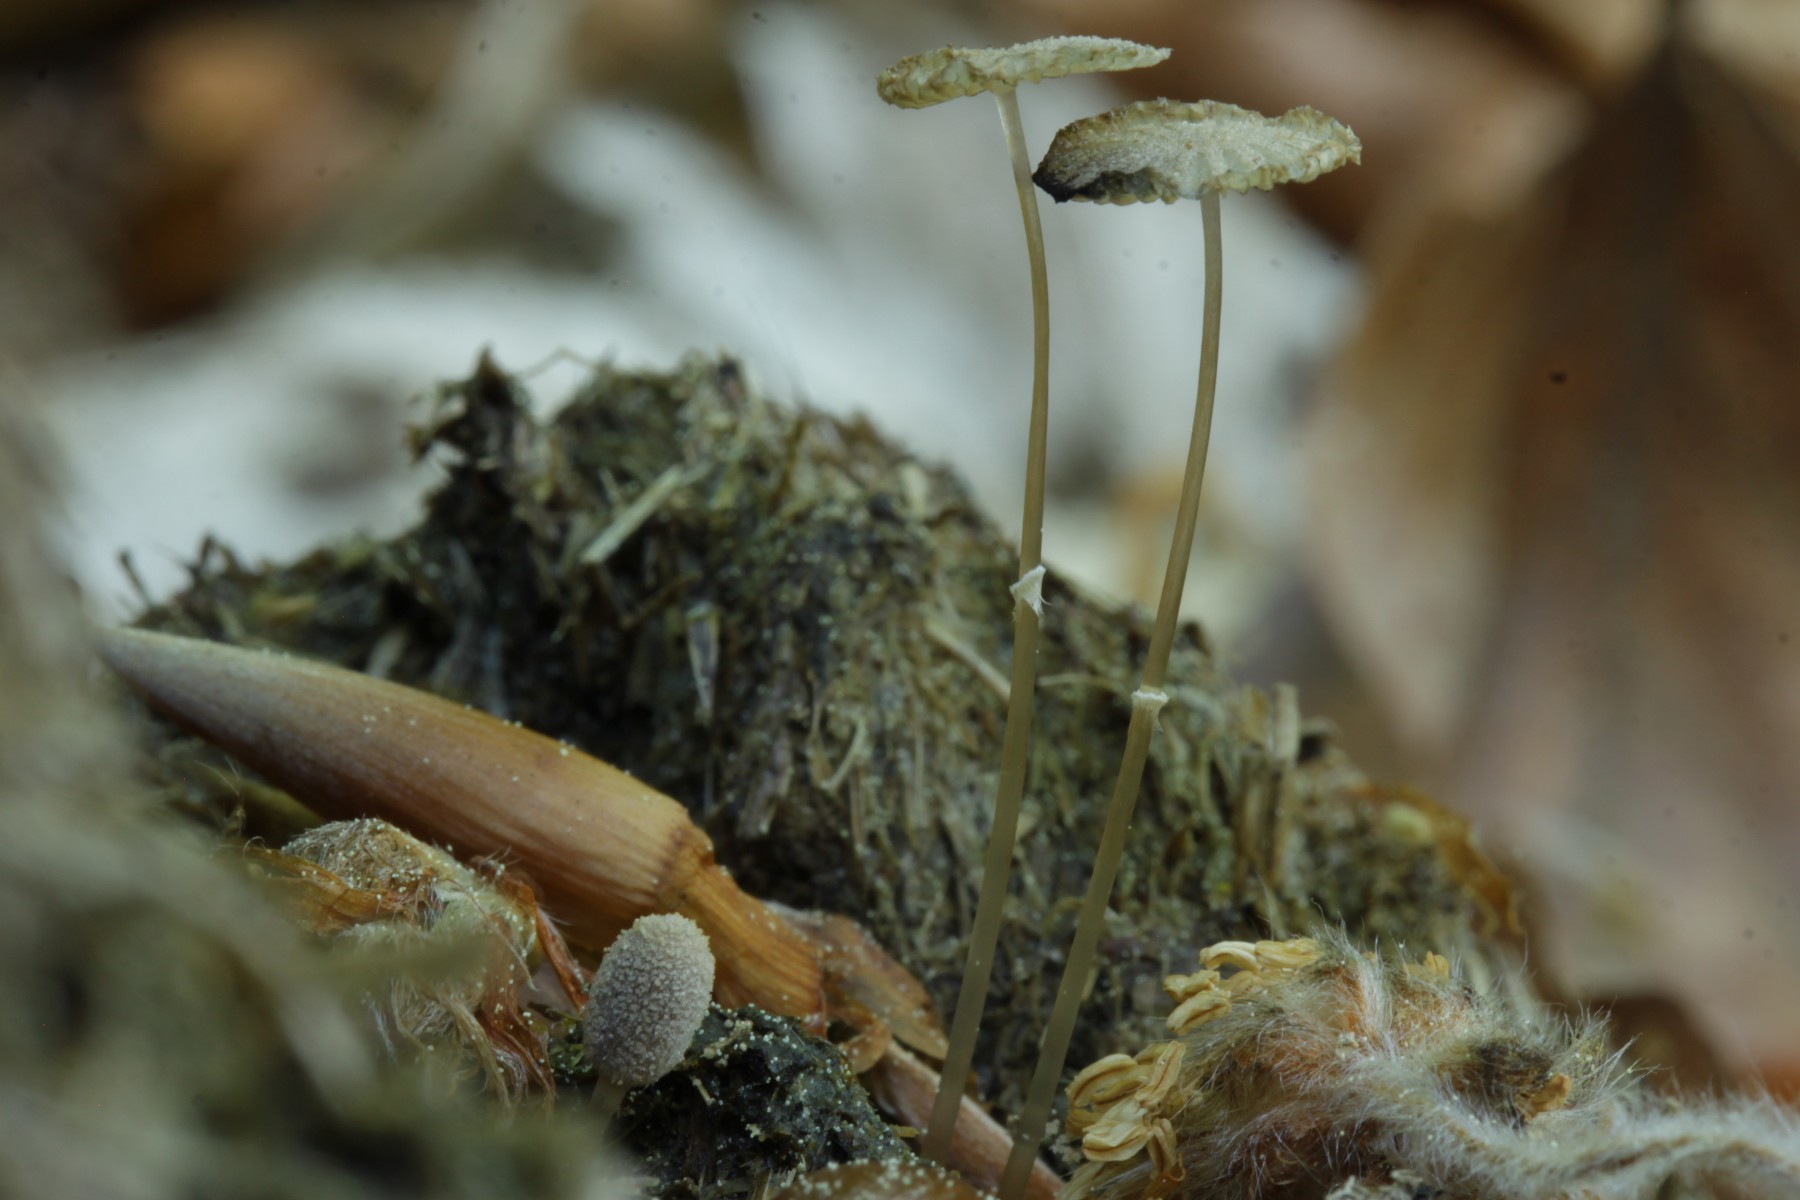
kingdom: Fungi
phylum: Basidiomycota
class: Agaricomycetes
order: Agaricales
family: Psathyrellaceae
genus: Narcissea
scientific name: Narcissea ephemeroides
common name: ring-blækhat
